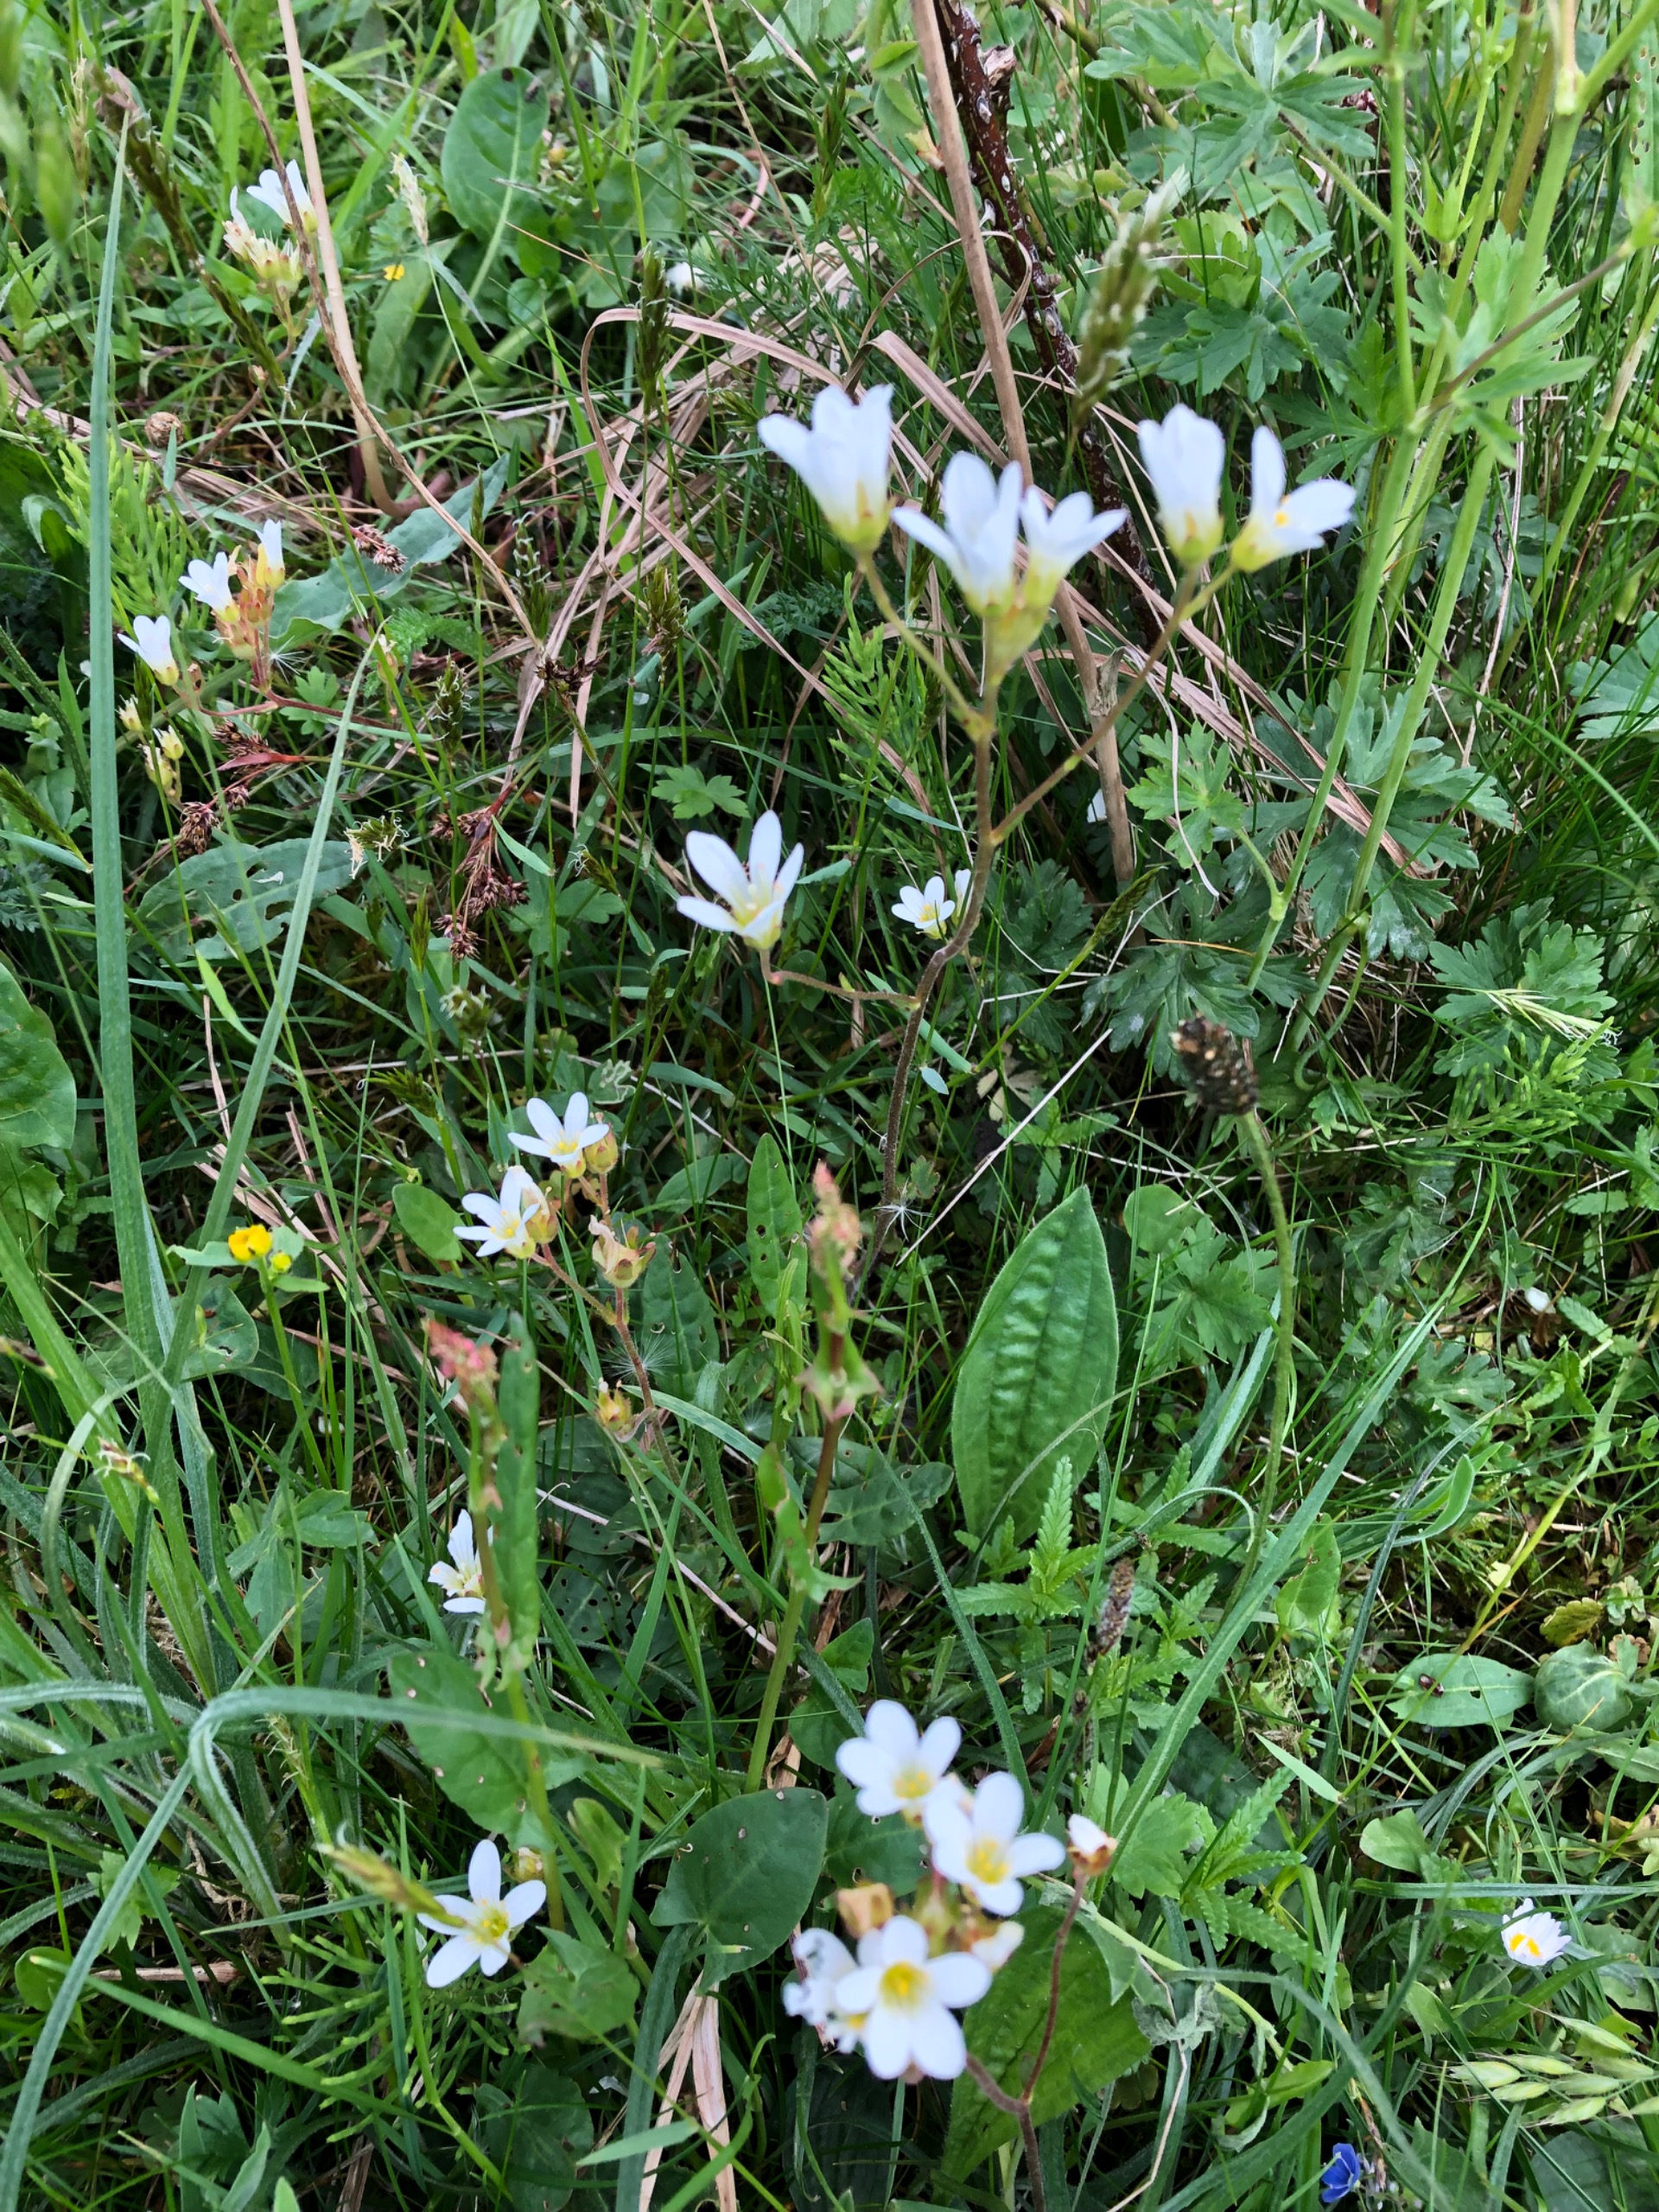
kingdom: Plantae
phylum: Tracheophyta
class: Magnoliopsida
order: Saxifragales
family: Saxifragaceae
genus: Saxifraga
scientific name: Saxifraga granulata
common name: Kornet stenbræk
